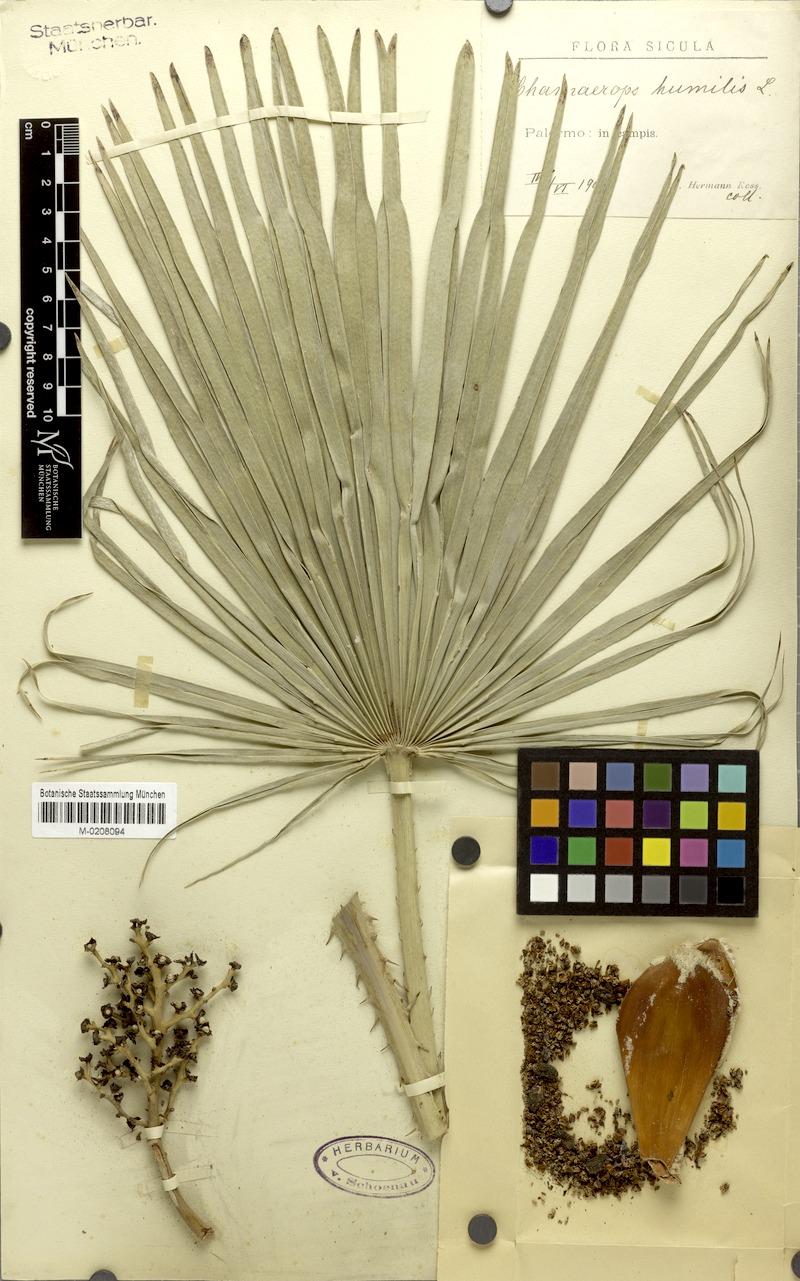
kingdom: Plantae
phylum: Tracheophyta
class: Liliopsida
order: Arecales
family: Arecaceae
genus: Chamaerops
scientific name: Chamaerops humilis
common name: Dwarf fan palm
